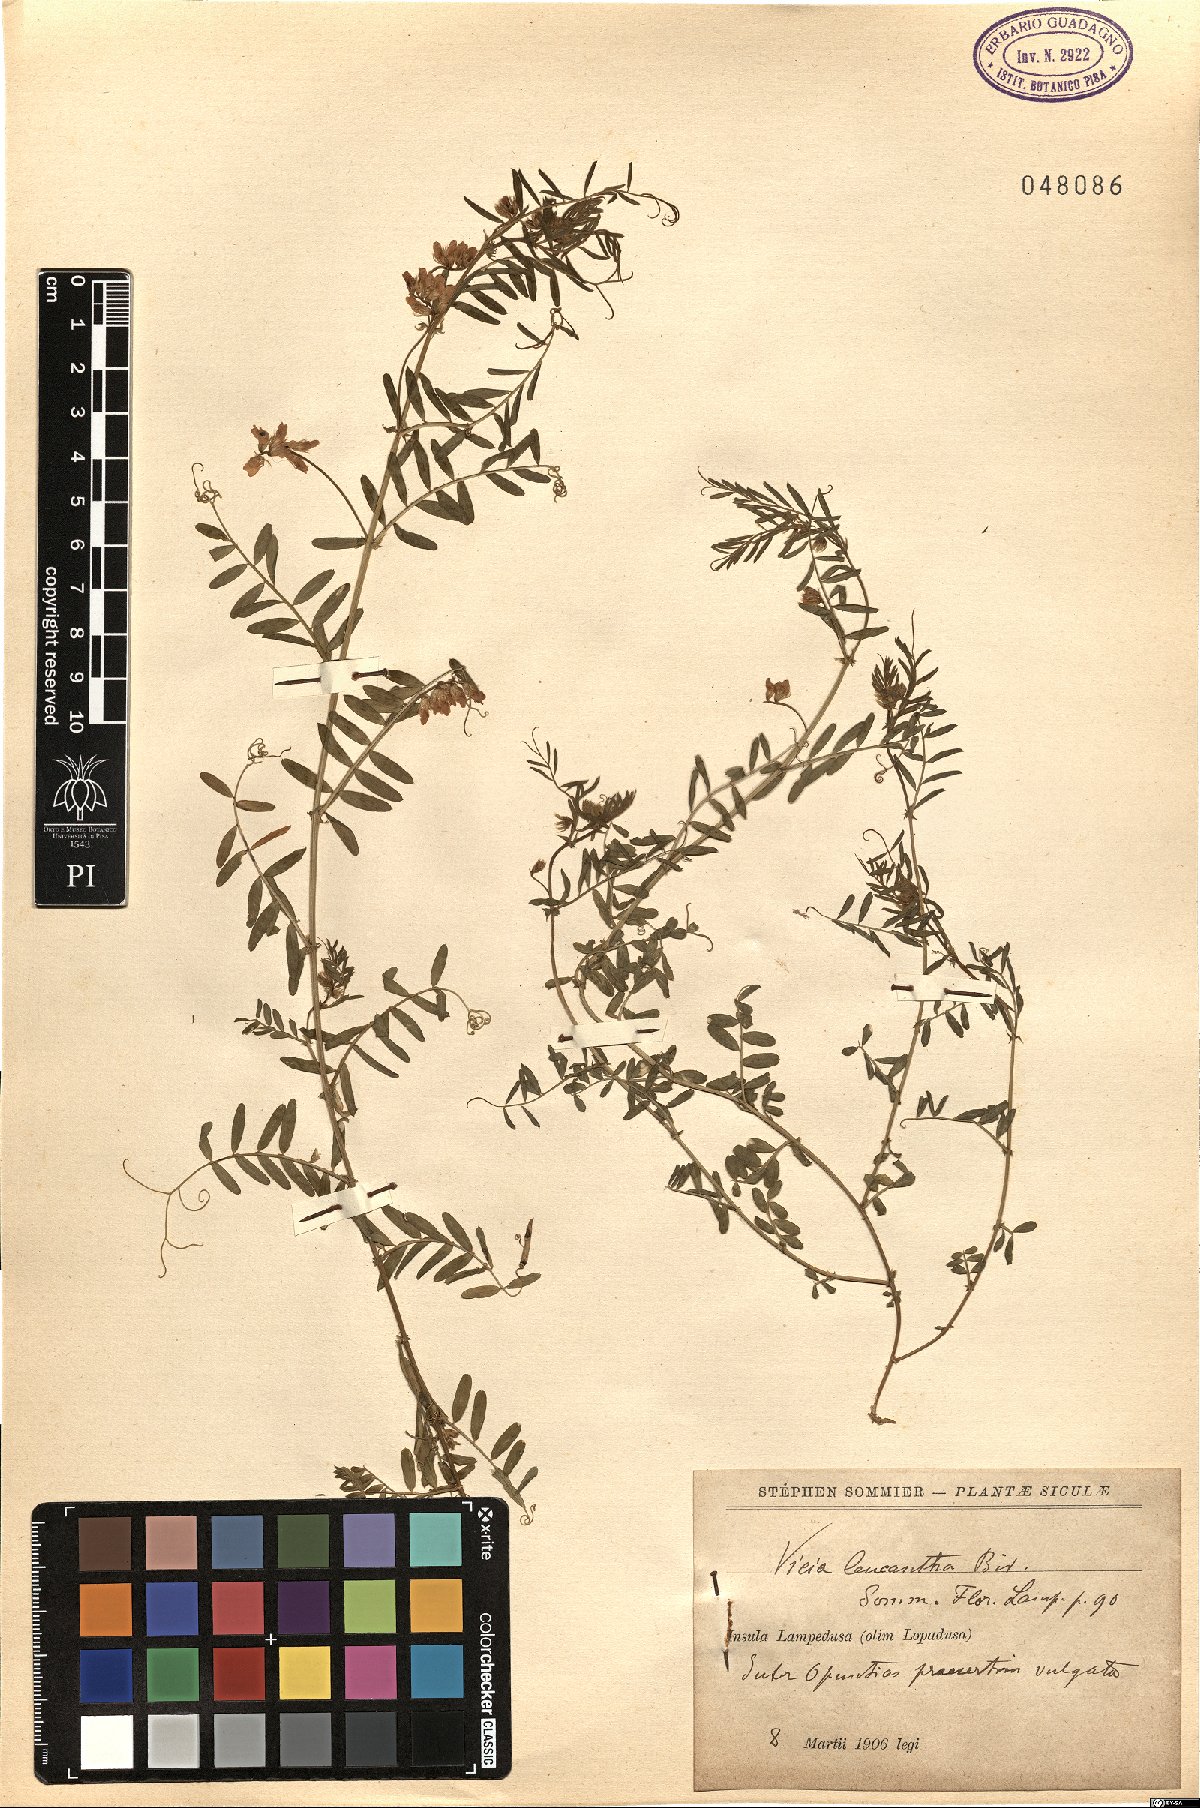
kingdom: Plantae
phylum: Tracheophyta
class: Magnoliopsida
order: Fabales
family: Fabaceae
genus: Vicia
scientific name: Vicia leucantha
